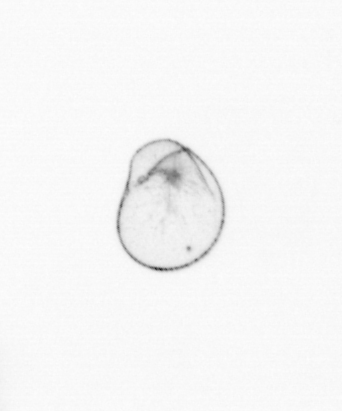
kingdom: Chromista
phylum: Myzozoa
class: Dinophyceae
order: Noctilucales
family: Noctilucaceae
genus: Noctiluca
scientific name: Noctiluca scintillans
